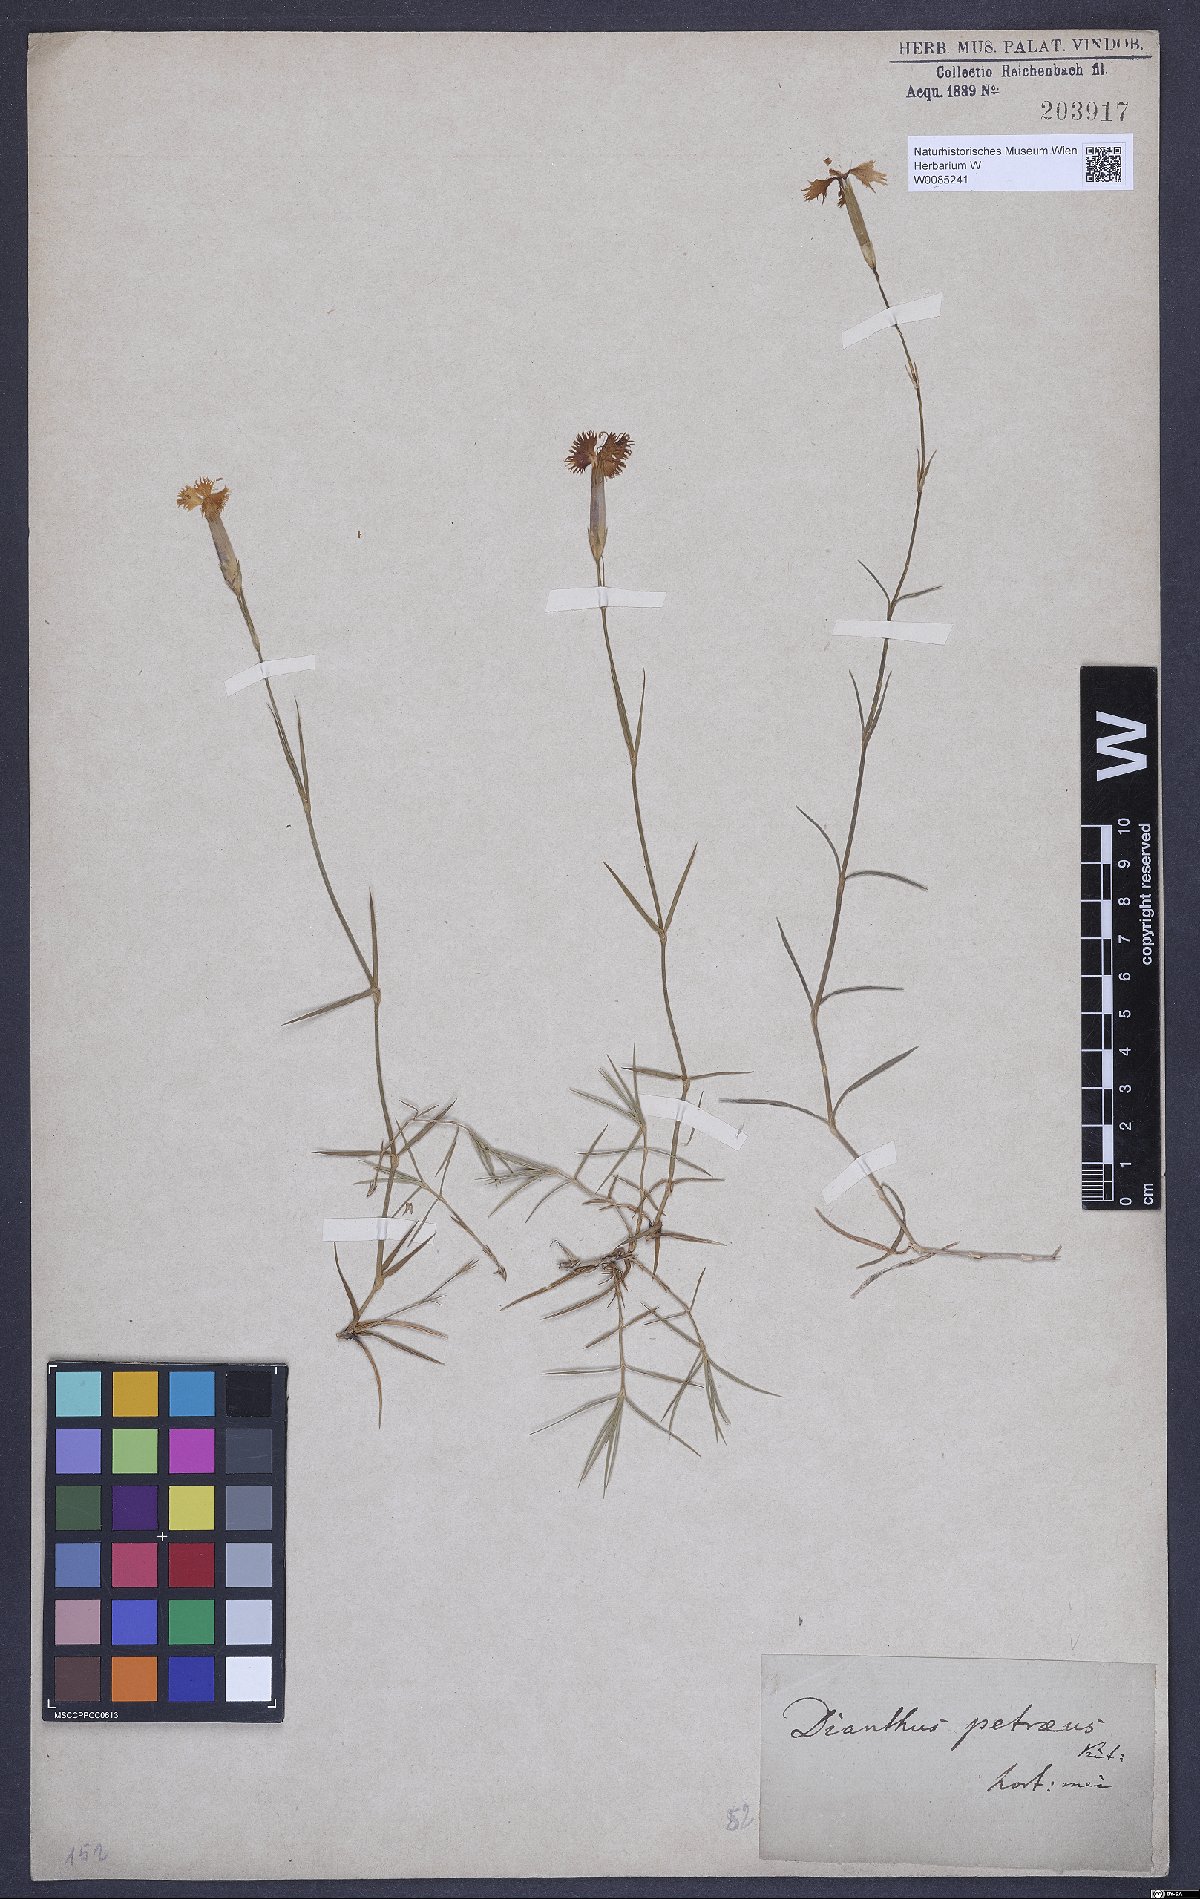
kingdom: Plantae
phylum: Tracheophyta
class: Magnoliopsida
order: Caryophyllales
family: Caryophyllaceae
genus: Dianthus
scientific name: Dianthus petraeus
